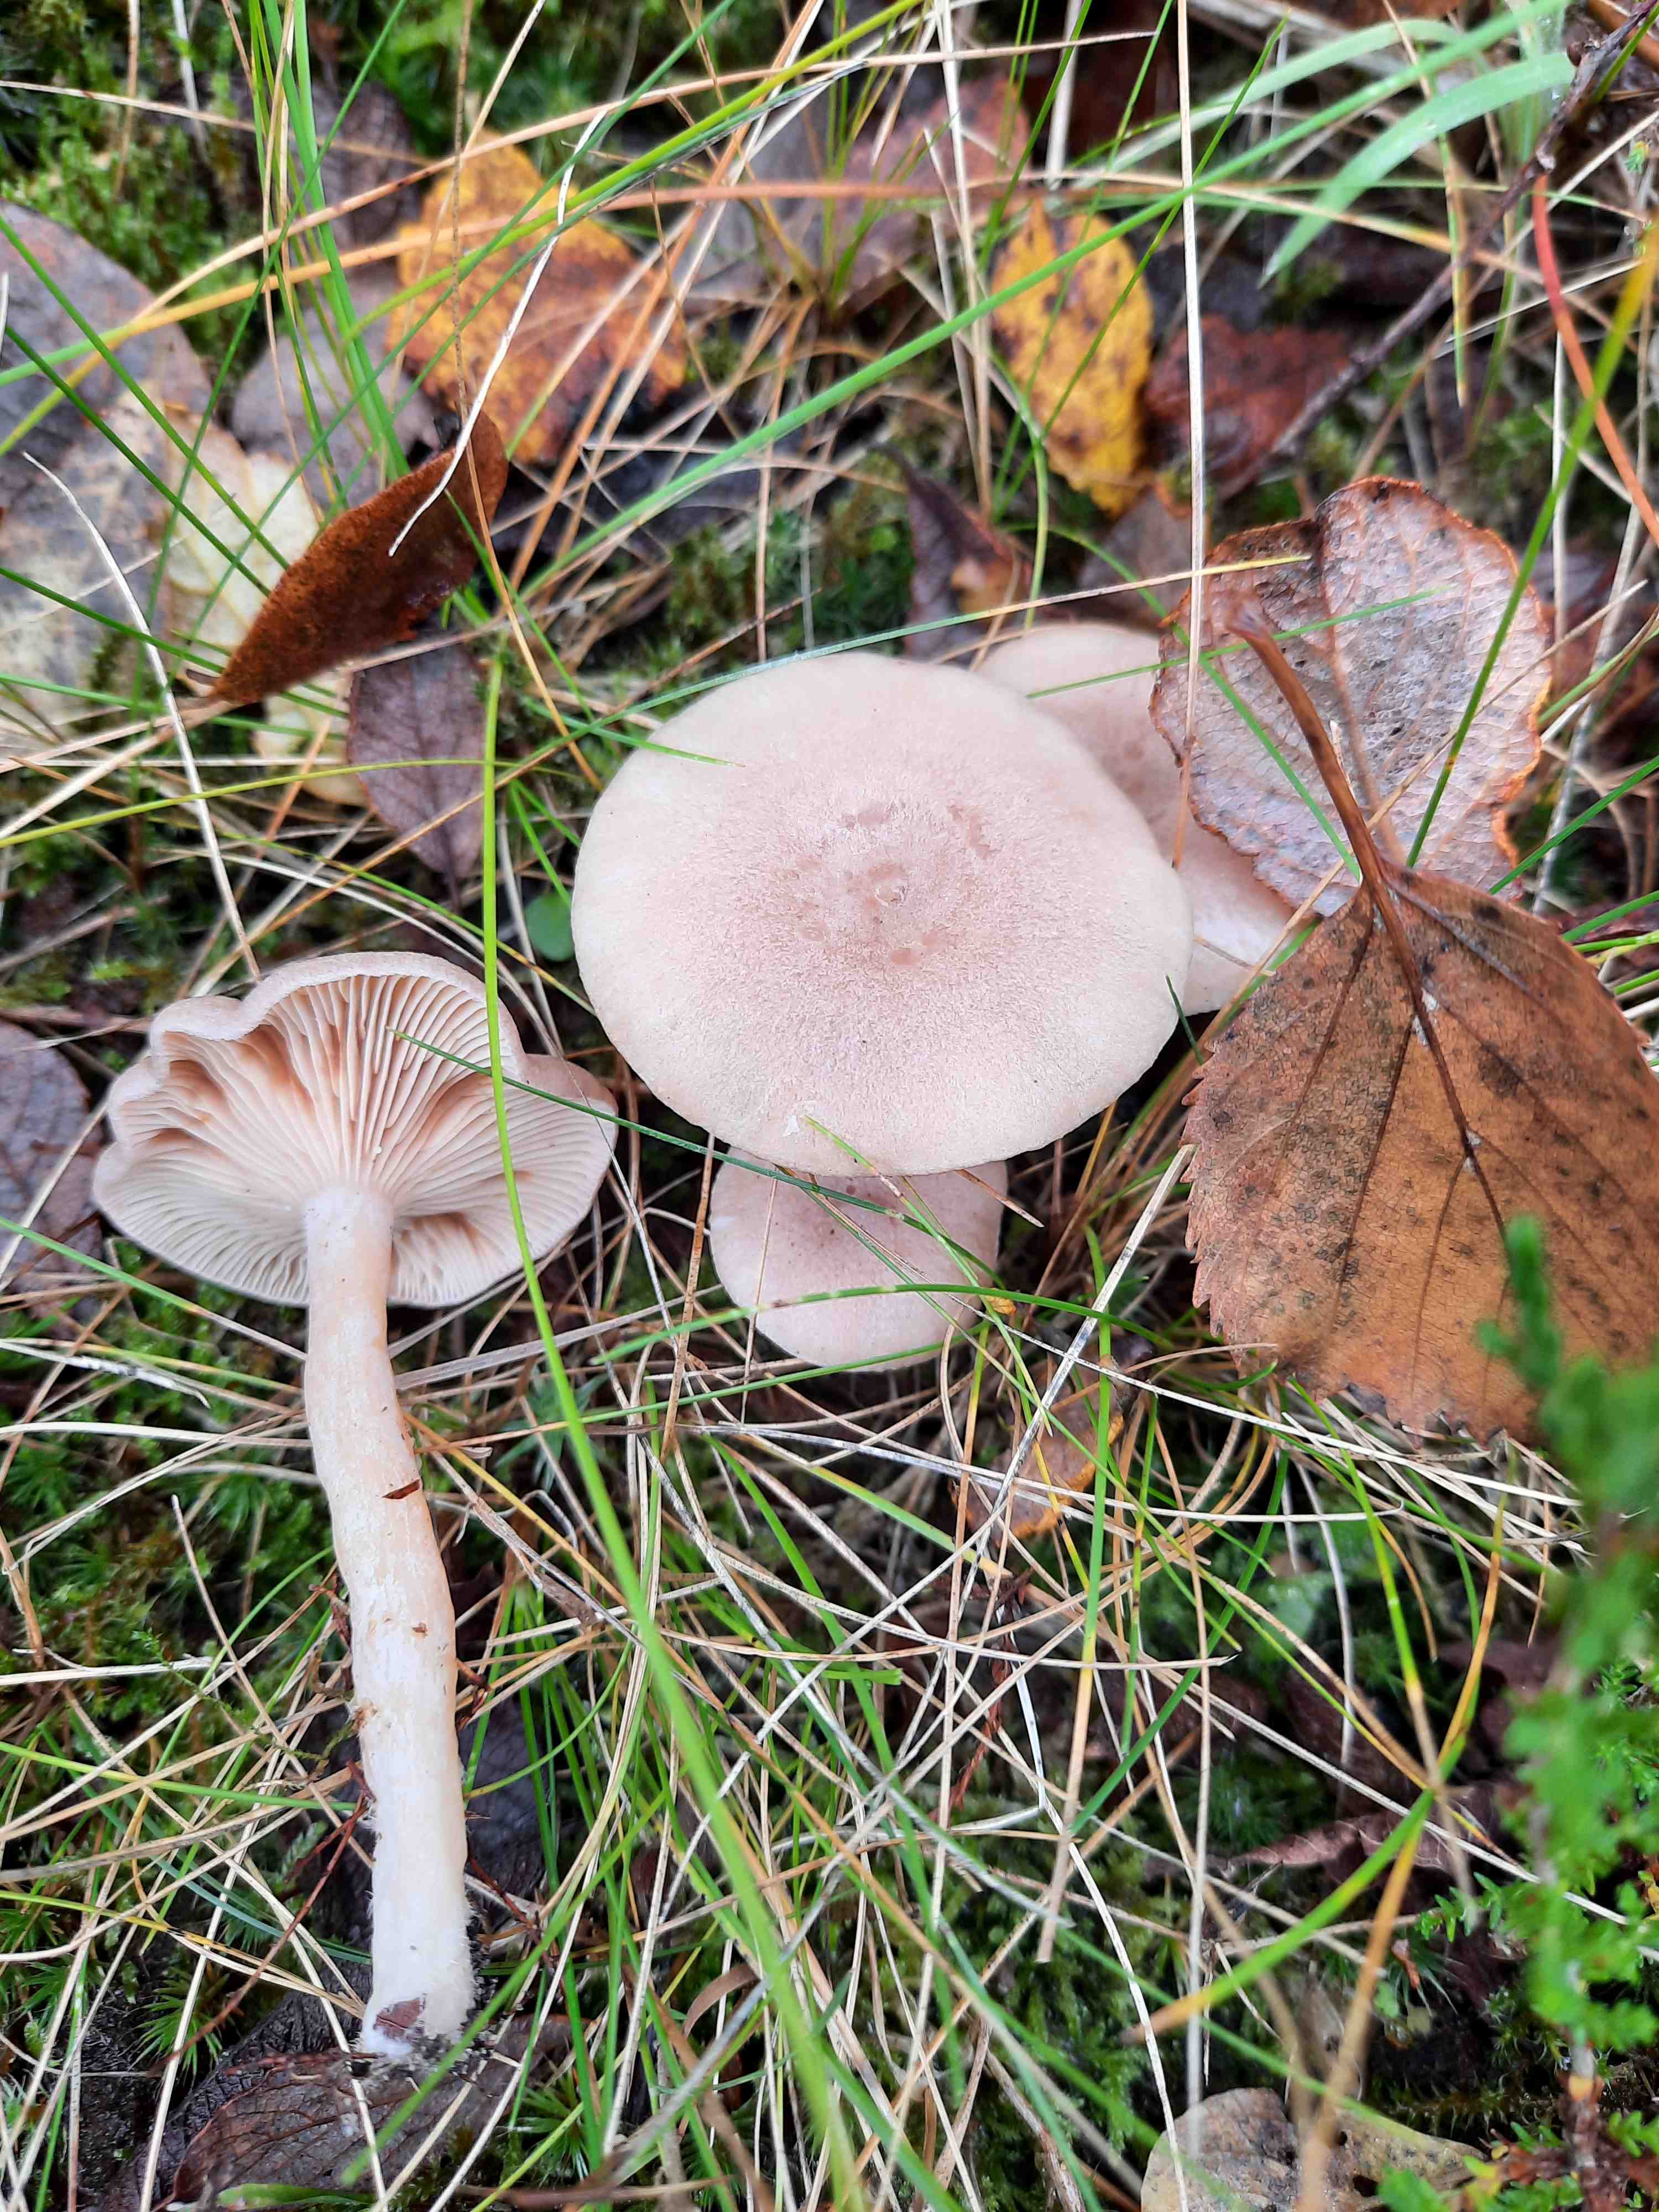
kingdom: Fungi
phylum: Basidiomycota
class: Agaricomycetes
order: Russulales
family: Russulaceae
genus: Lactarius
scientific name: Lactarius glyciosmus
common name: kokos-mælkehat
